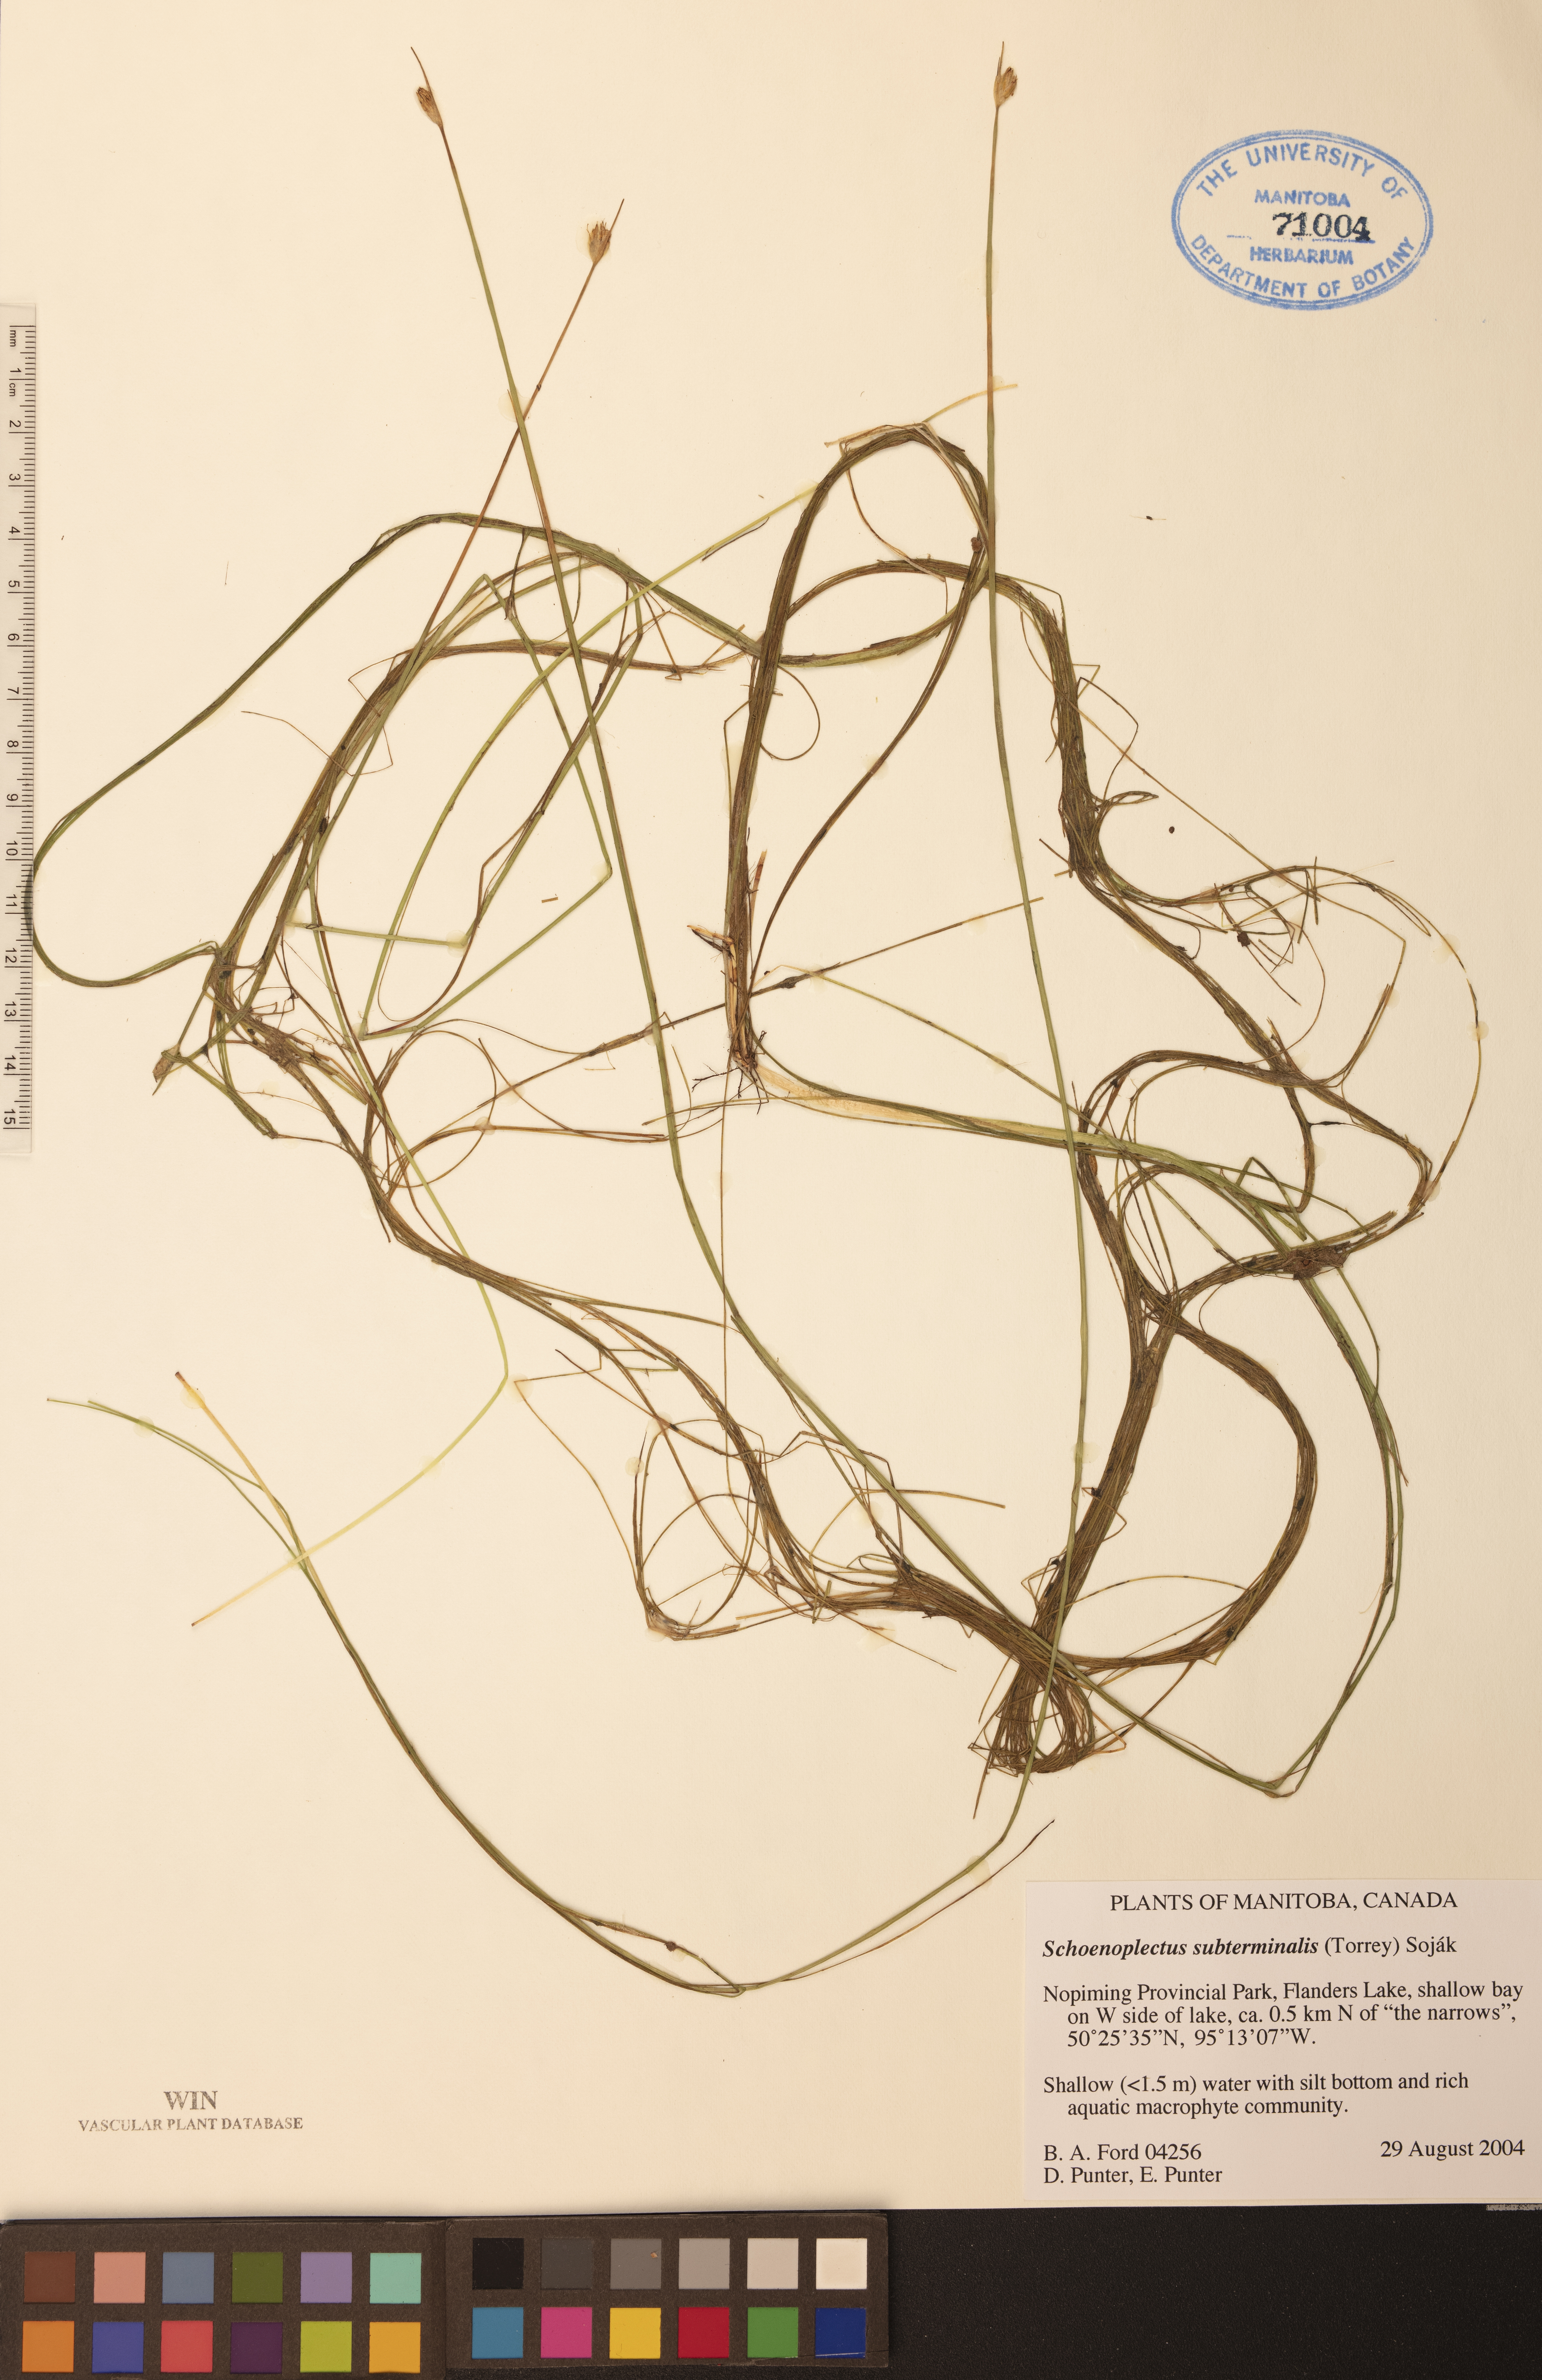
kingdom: Plantae
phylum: Tracheophyta
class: Liliopsida
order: Poales
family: Cyperaceae
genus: Schoenoplectus
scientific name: Schoenoplectus subterminalis
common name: Swaying bulrush
